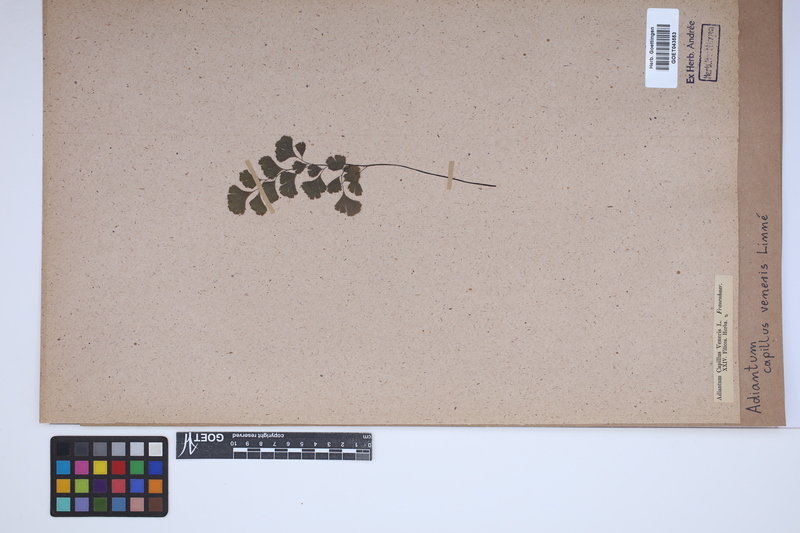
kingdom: Plantae
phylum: Tracheophyta
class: Polypodiopsida
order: Polypodiales
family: Pteridaceae
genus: Adiantum
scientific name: Adiantum capillus-veneris
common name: Maidenhair fern
